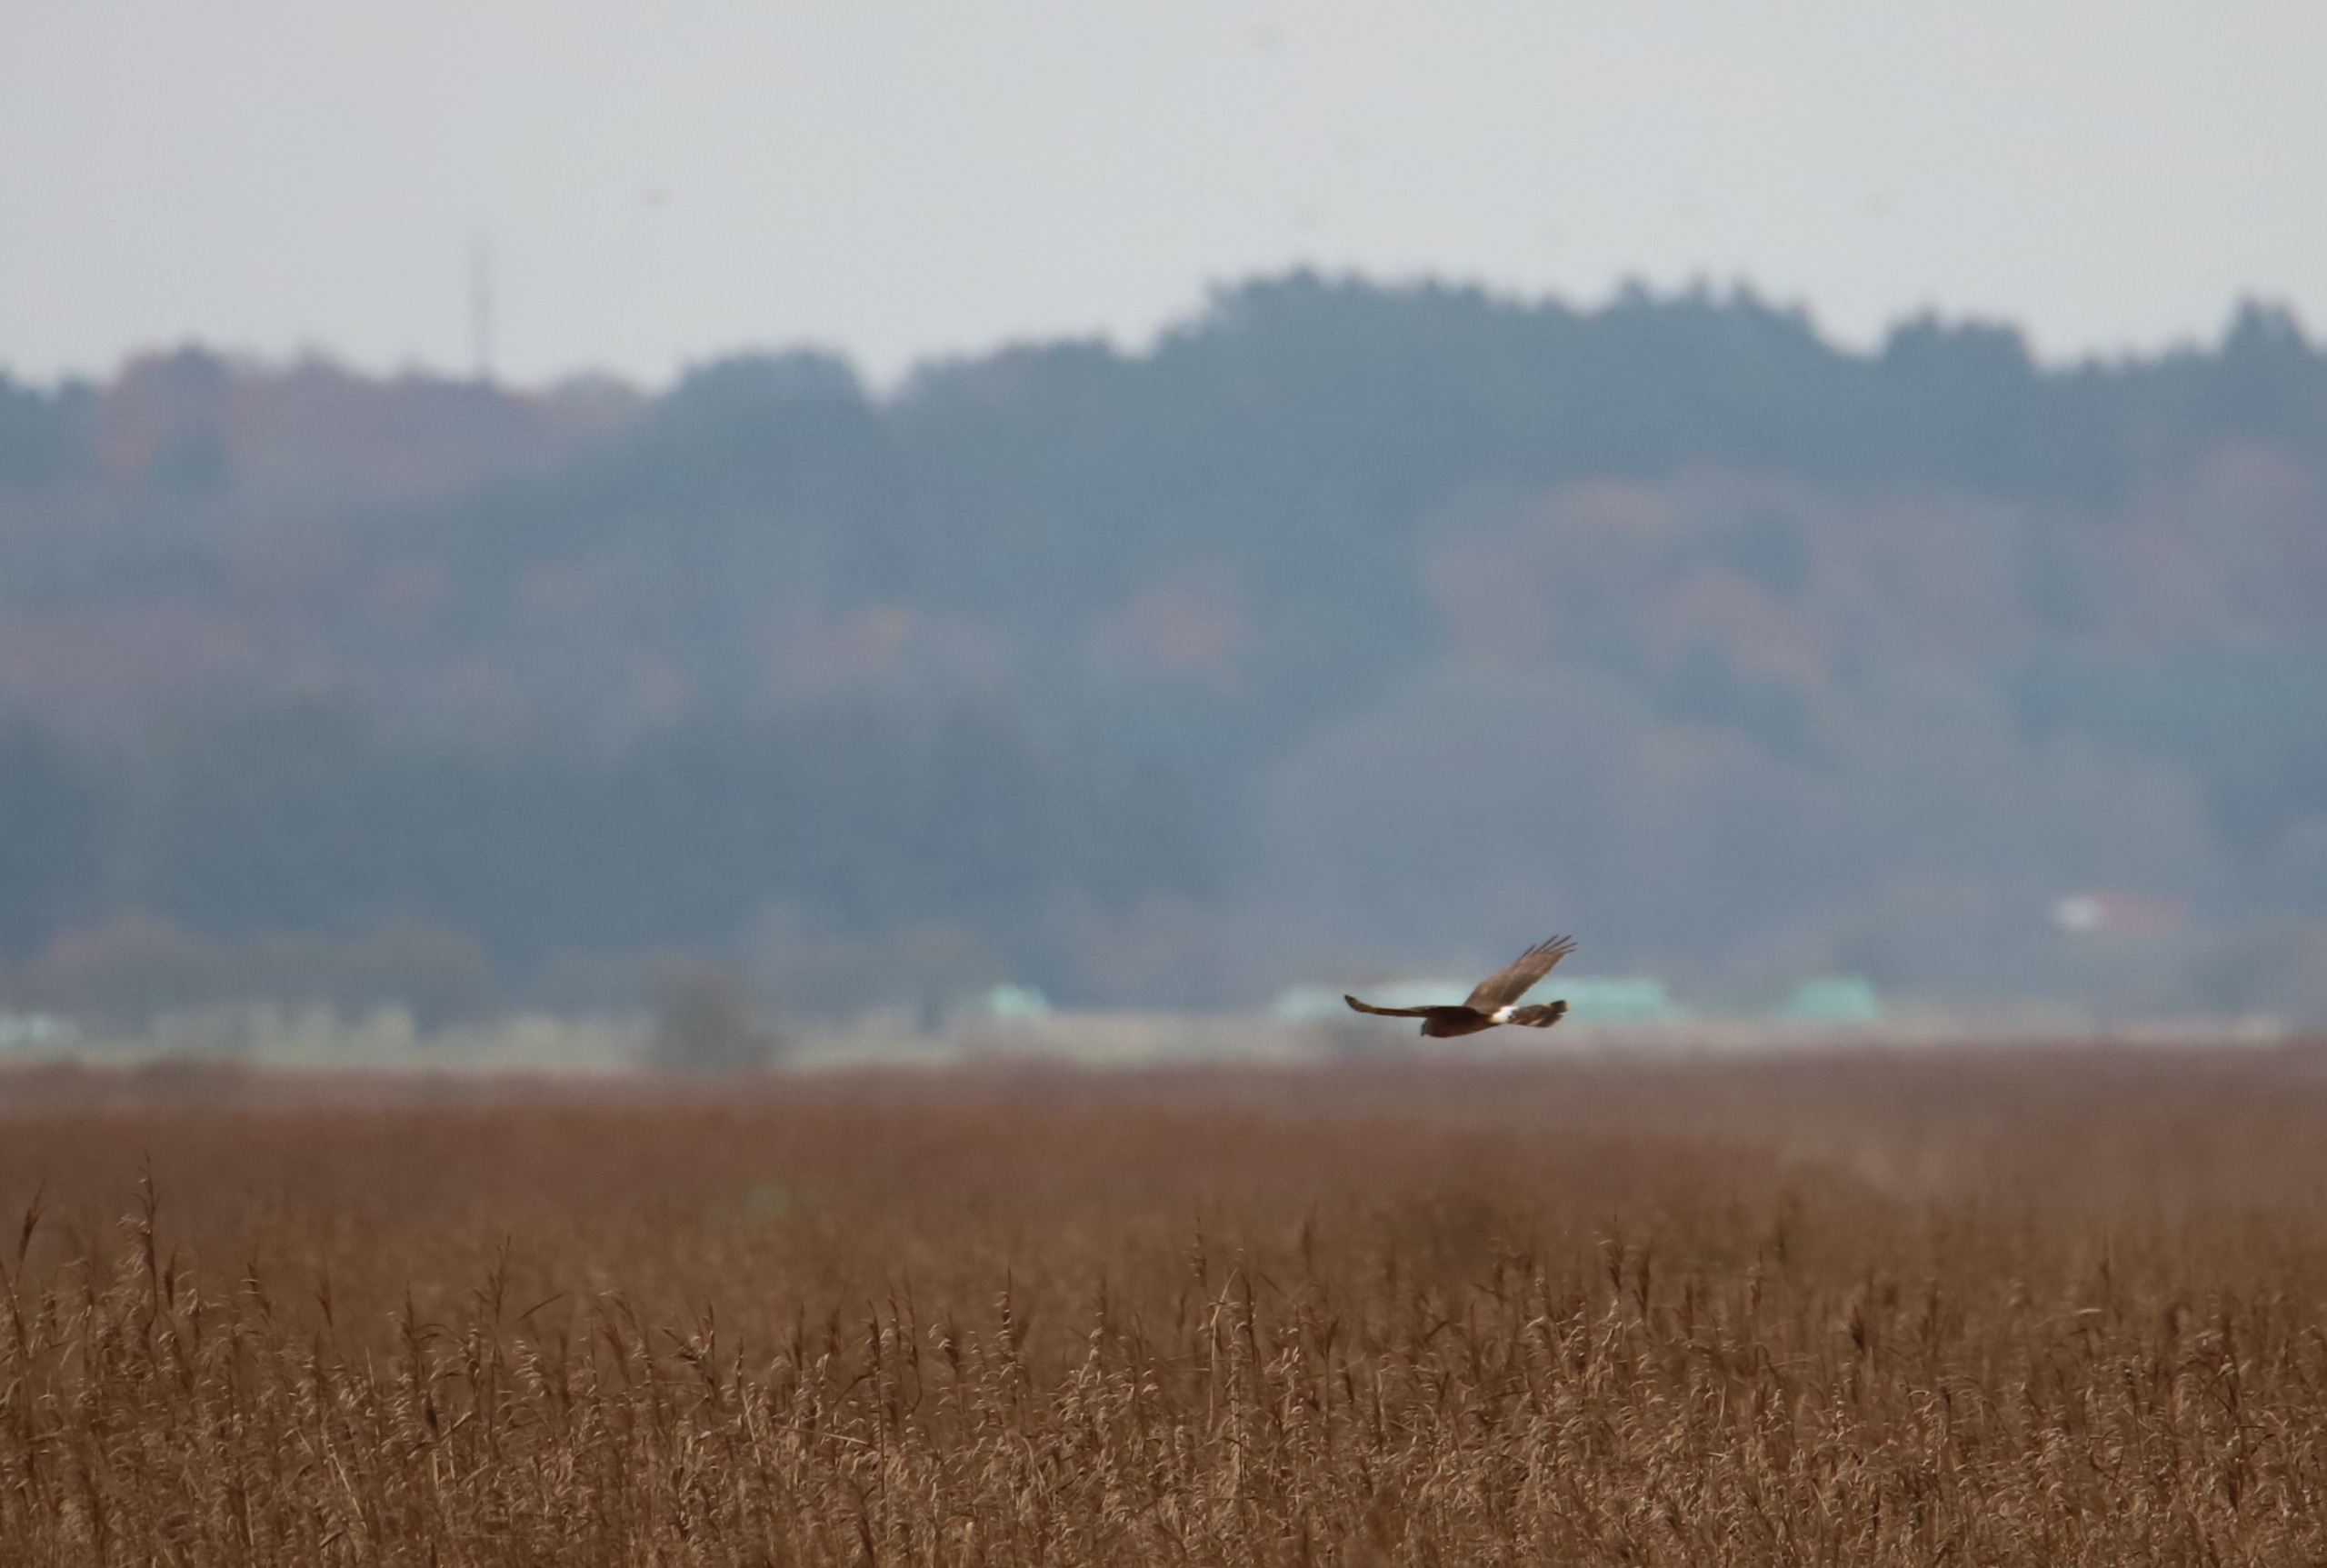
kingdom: Animalia
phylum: Chordata
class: Aves
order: Accipitriformes
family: Accipitridae
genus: Circus
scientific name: Circus cyaneus
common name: Blå kærhøg
